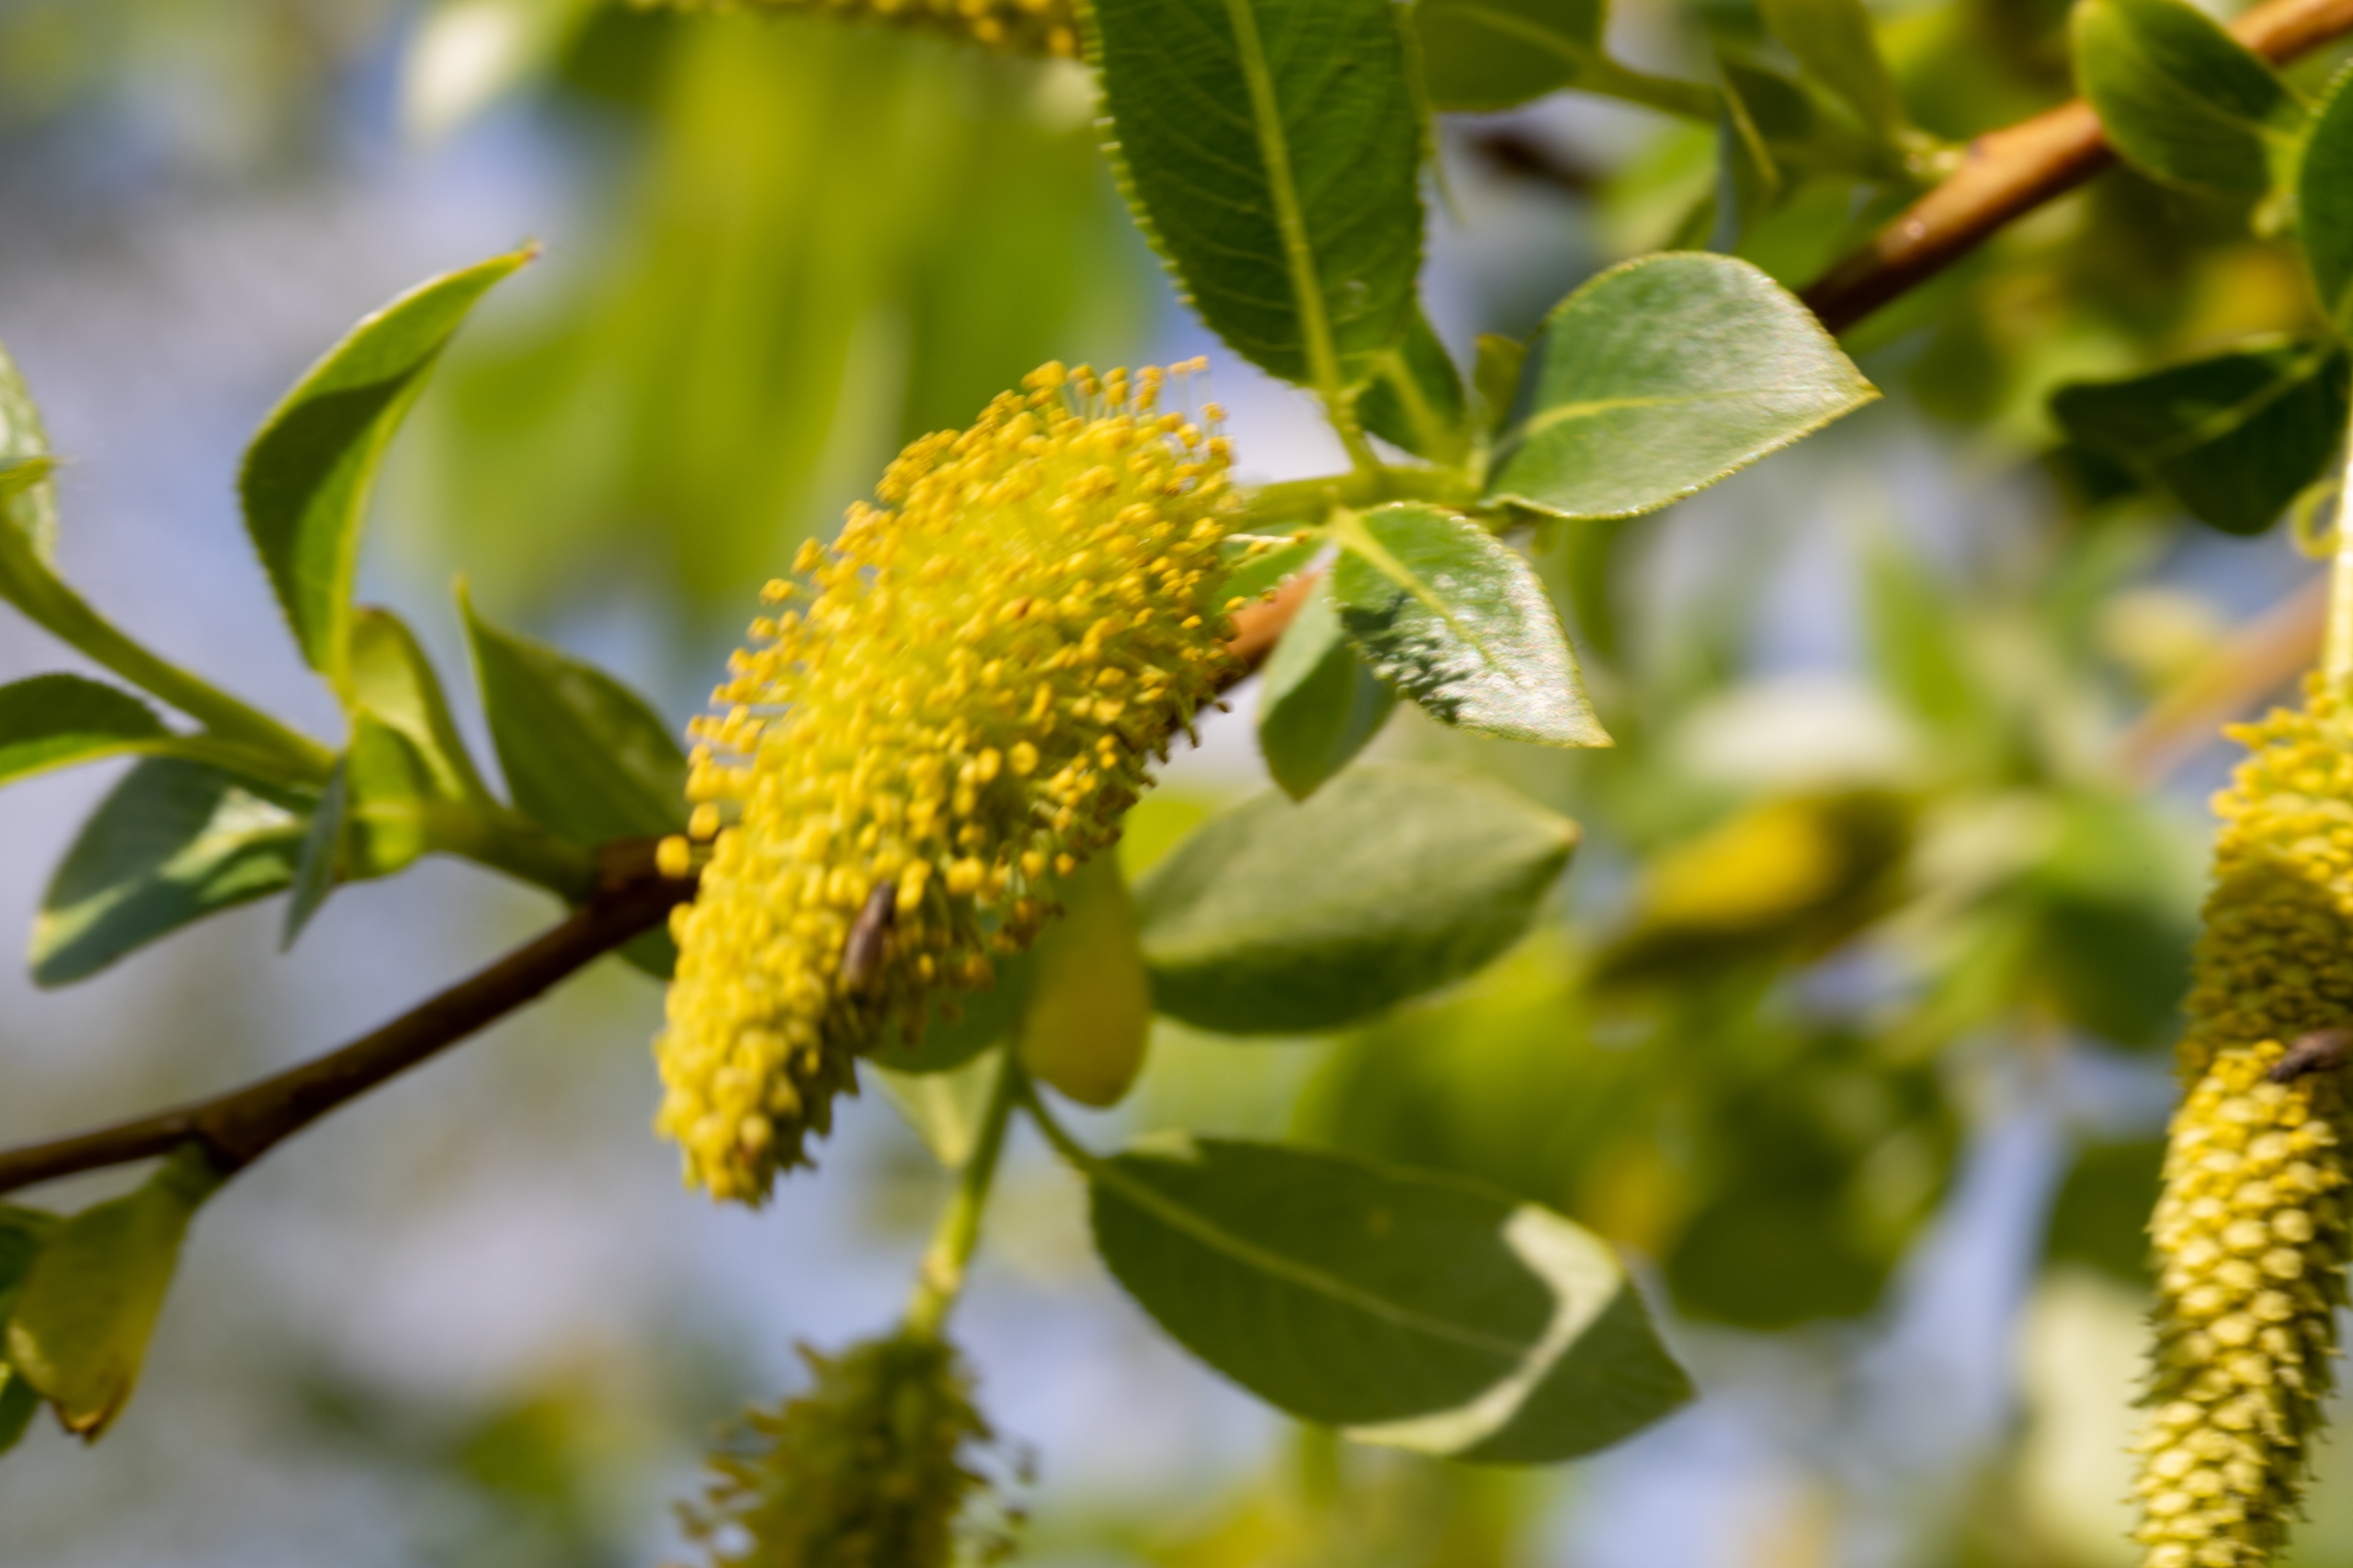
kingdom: Plantae
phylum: Tracheophyta
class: Magnoliopsida
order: Malpighiales
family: Salicaceae
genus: Salix
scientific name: Salix pentandra
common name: Femhannet pil
